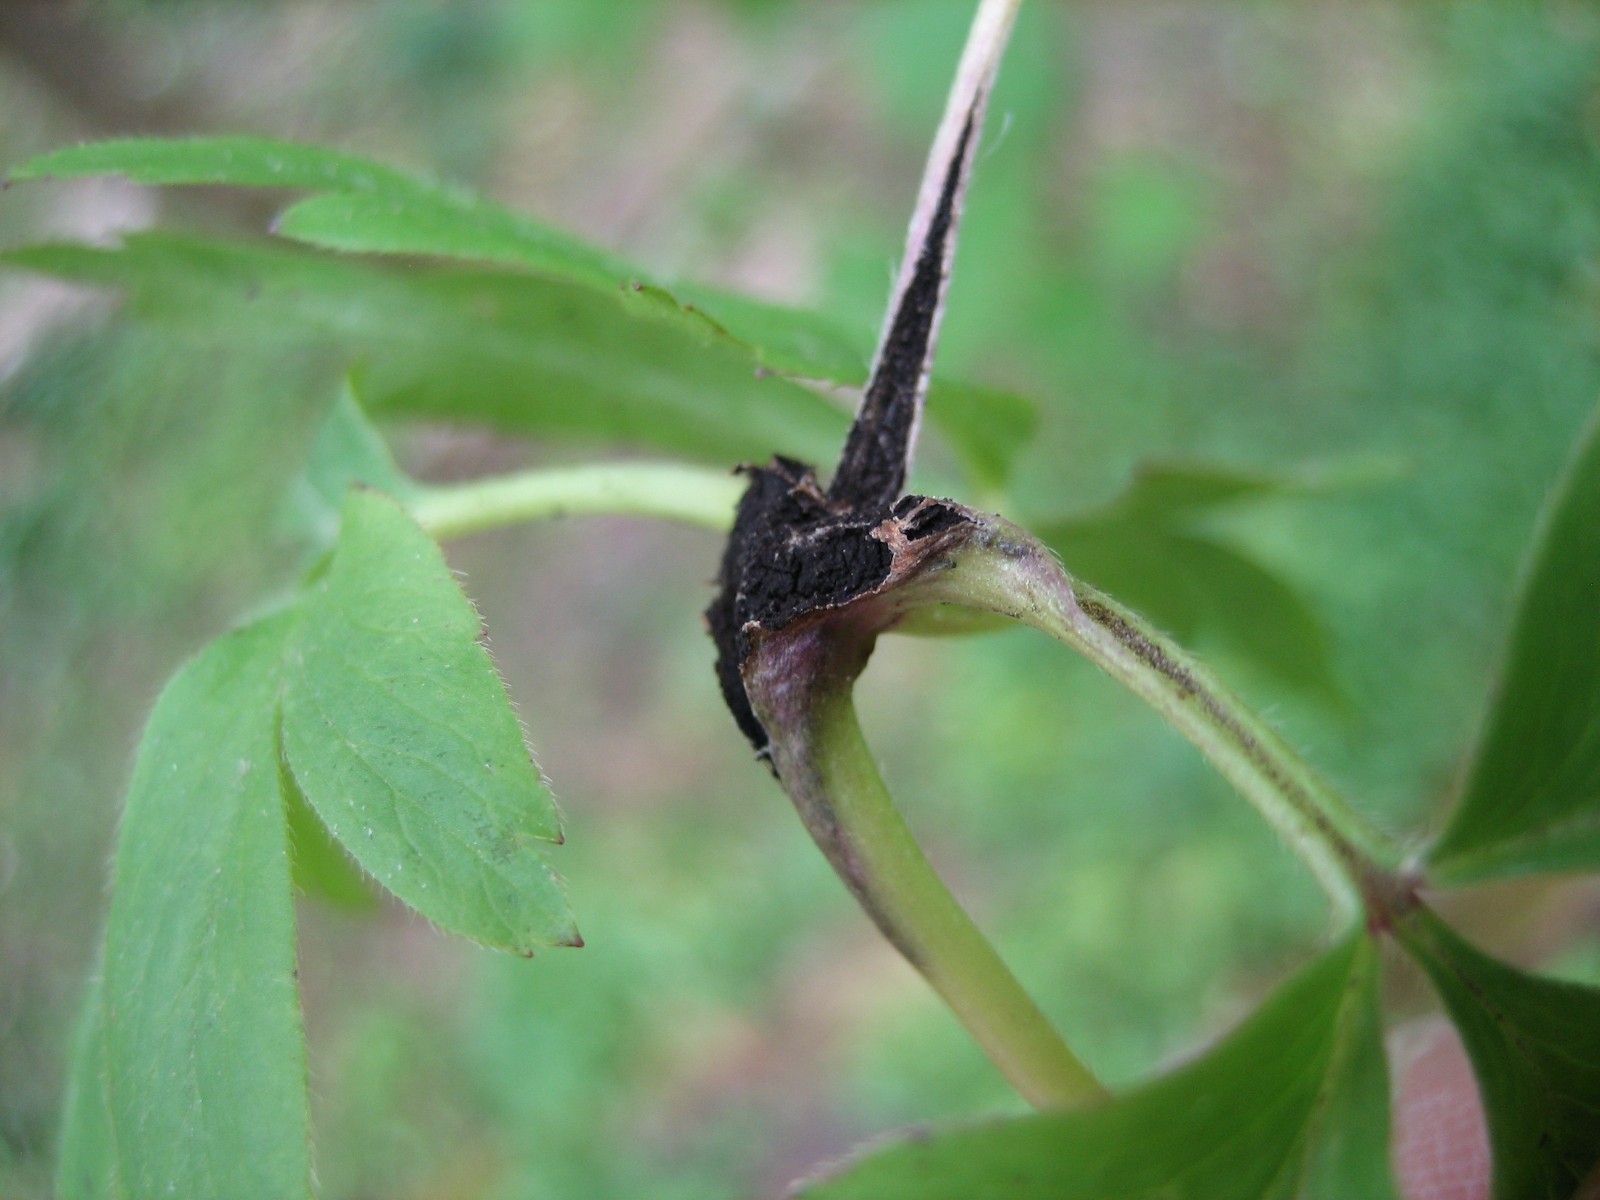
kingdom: Fungi
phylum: Basidiomycota
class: Ustilaginomycetes
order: Urocystidales
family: Urocystidaceae
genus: Urocystis
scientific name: Urocystis anemones
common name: anemone-brand
